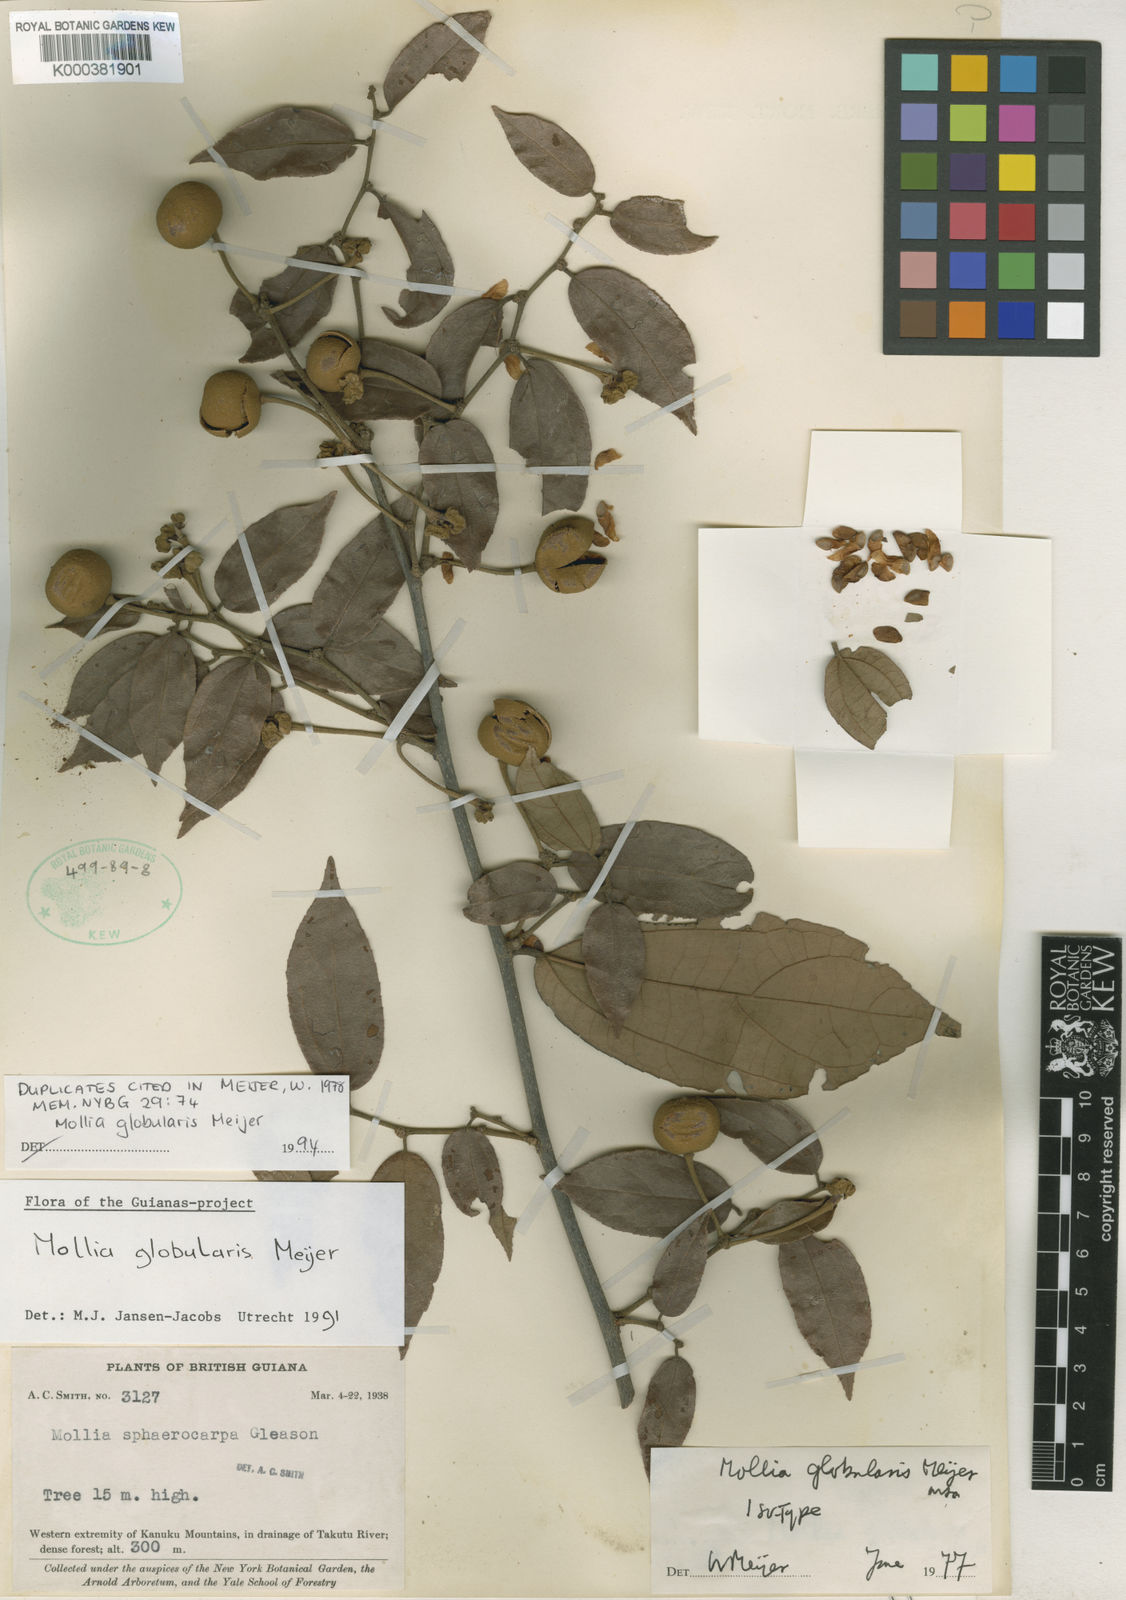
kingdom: Plantae
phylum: Tracheophyta
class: Magnoliopsida
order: Malvales
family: Malvaceae
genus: Mollia
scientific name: Mollia globularis
